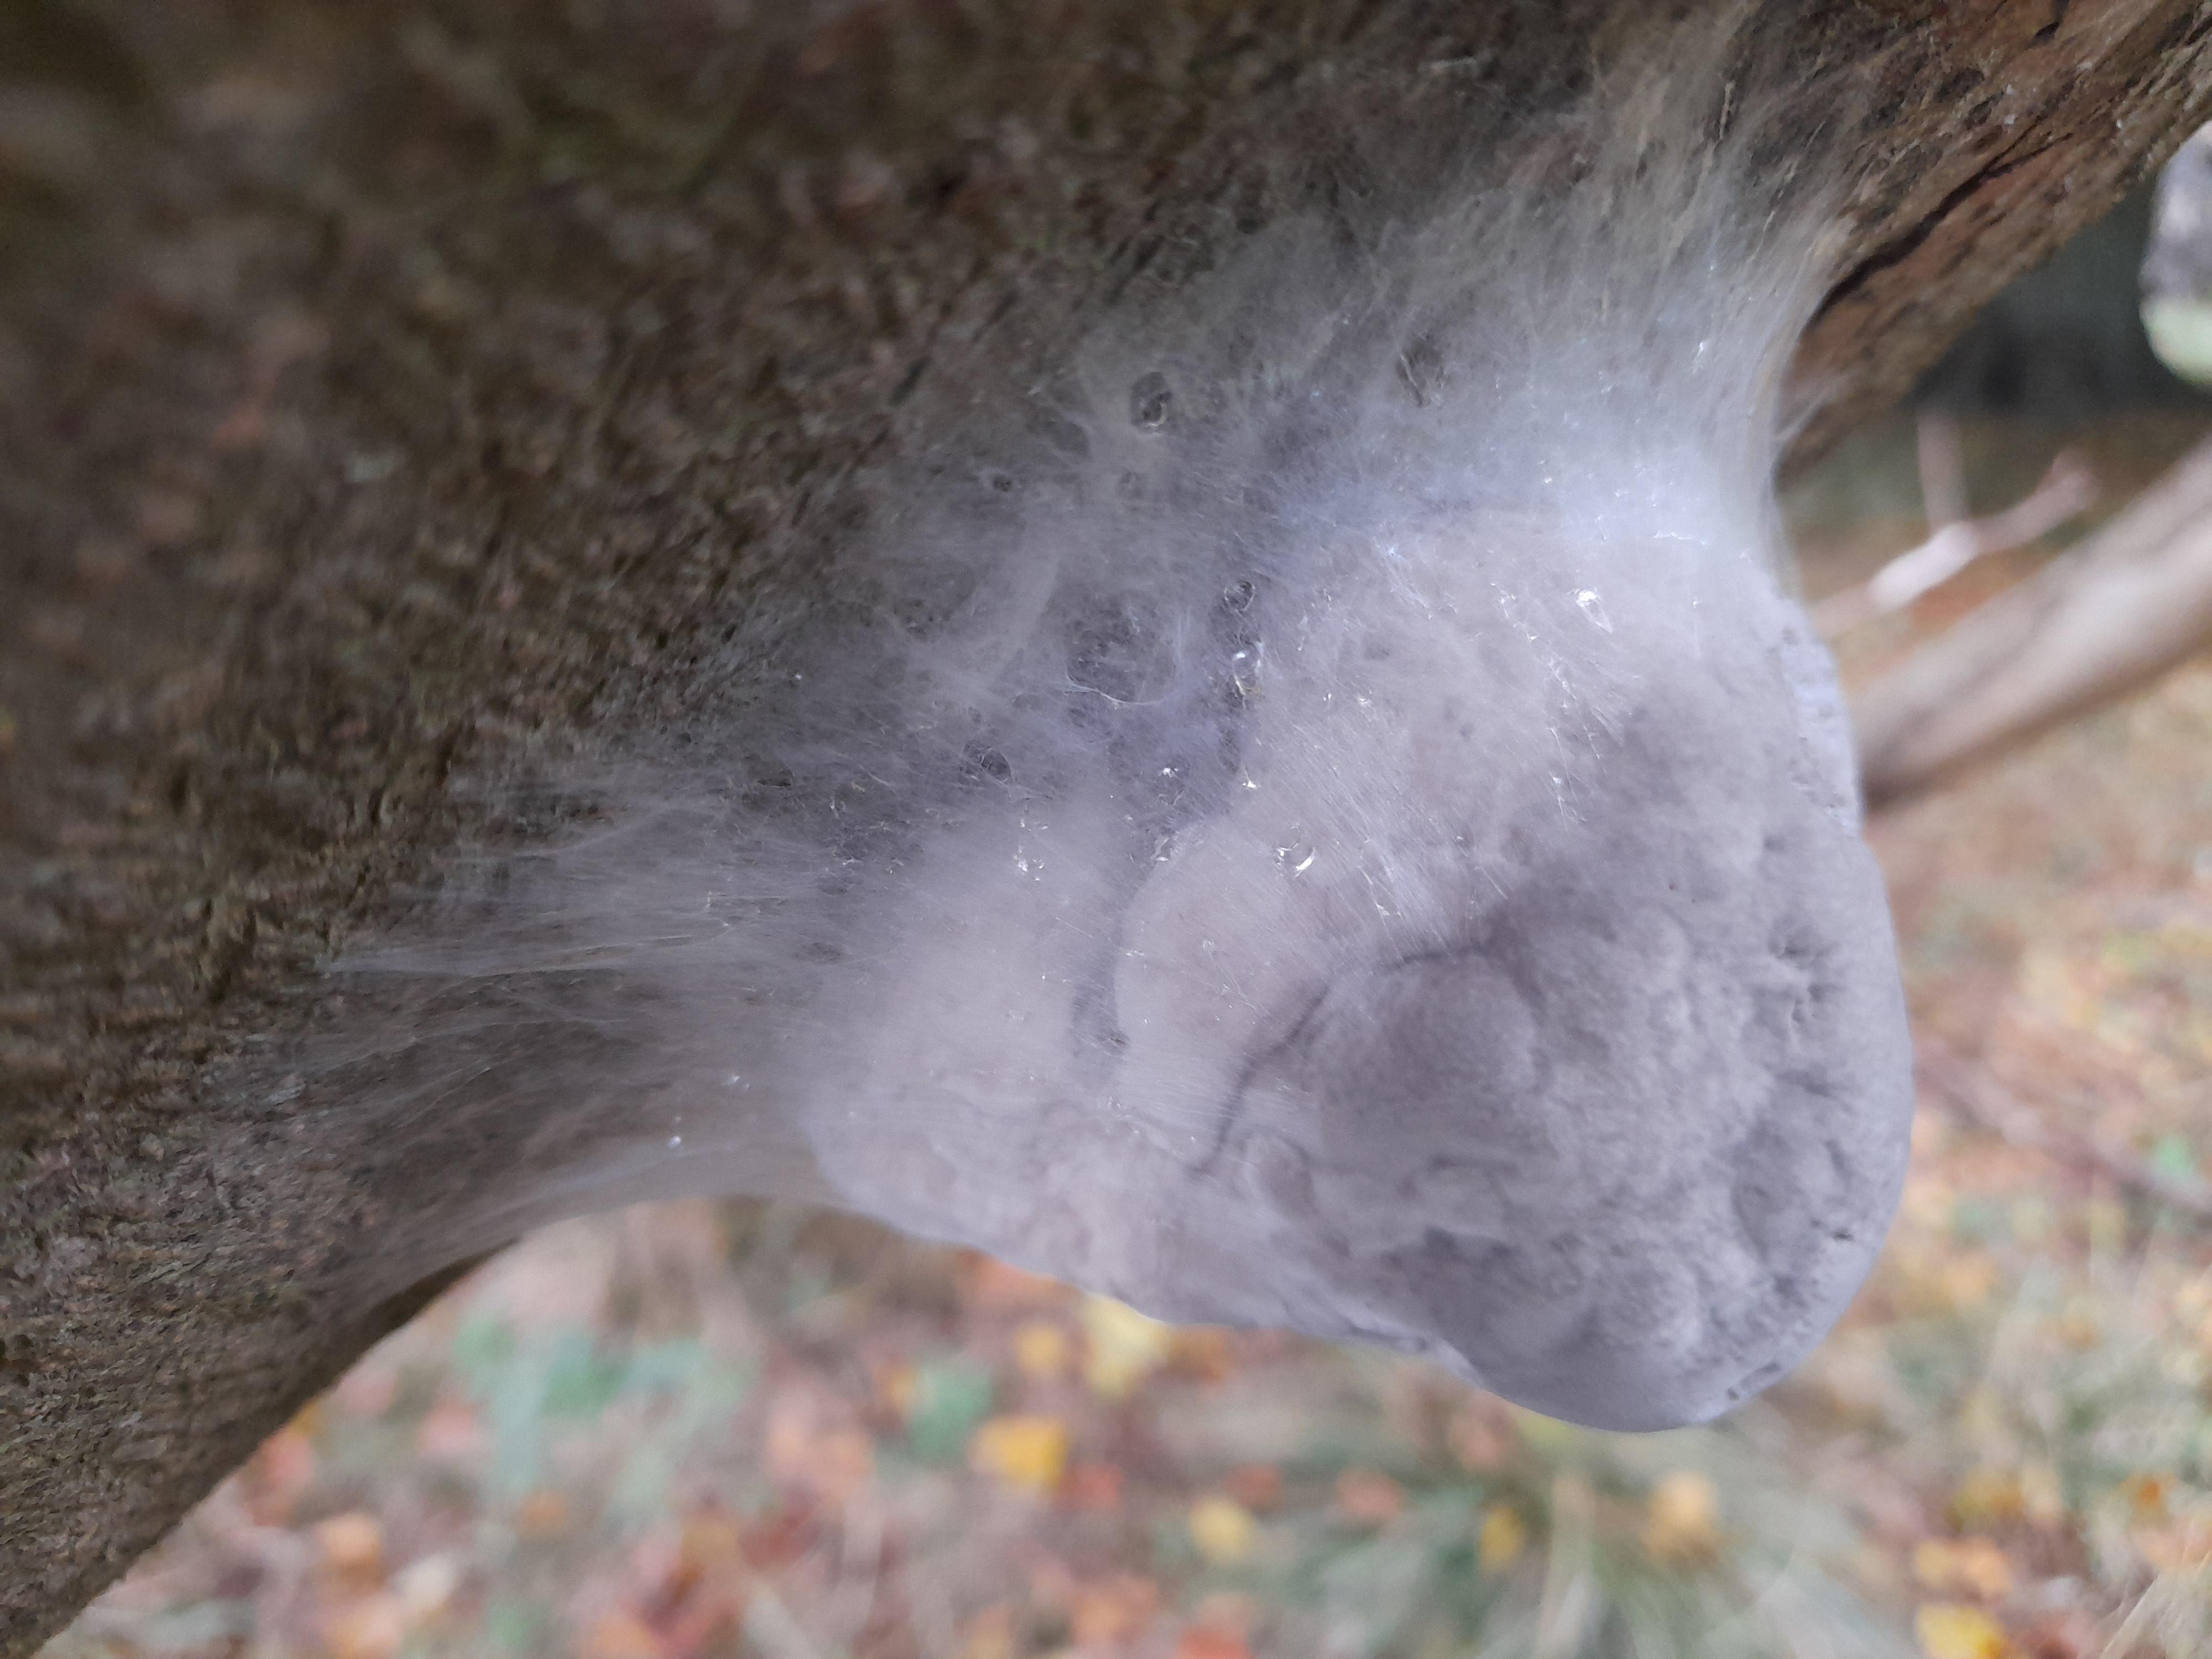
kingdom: Fungi
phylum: Basidiomycota
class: Agaricomycetes
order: Polyporales
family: Polyporaceae
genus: Fomes
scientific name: Fomes fomentarius
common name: tøndersvamp
